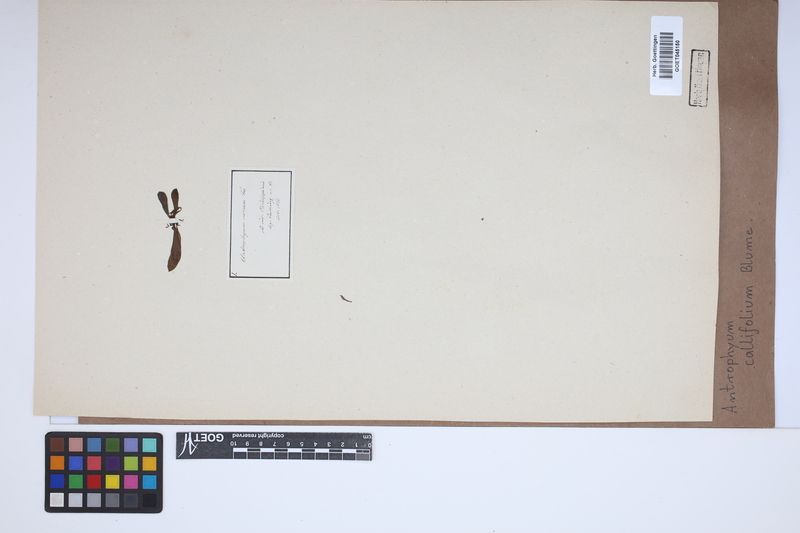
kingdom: Plantae
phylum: Tracheophyta
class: Polypodiopsida
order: Polypodiales
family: Pteridaceae
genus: Antrophyum
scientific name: Antrophyum callifolium
